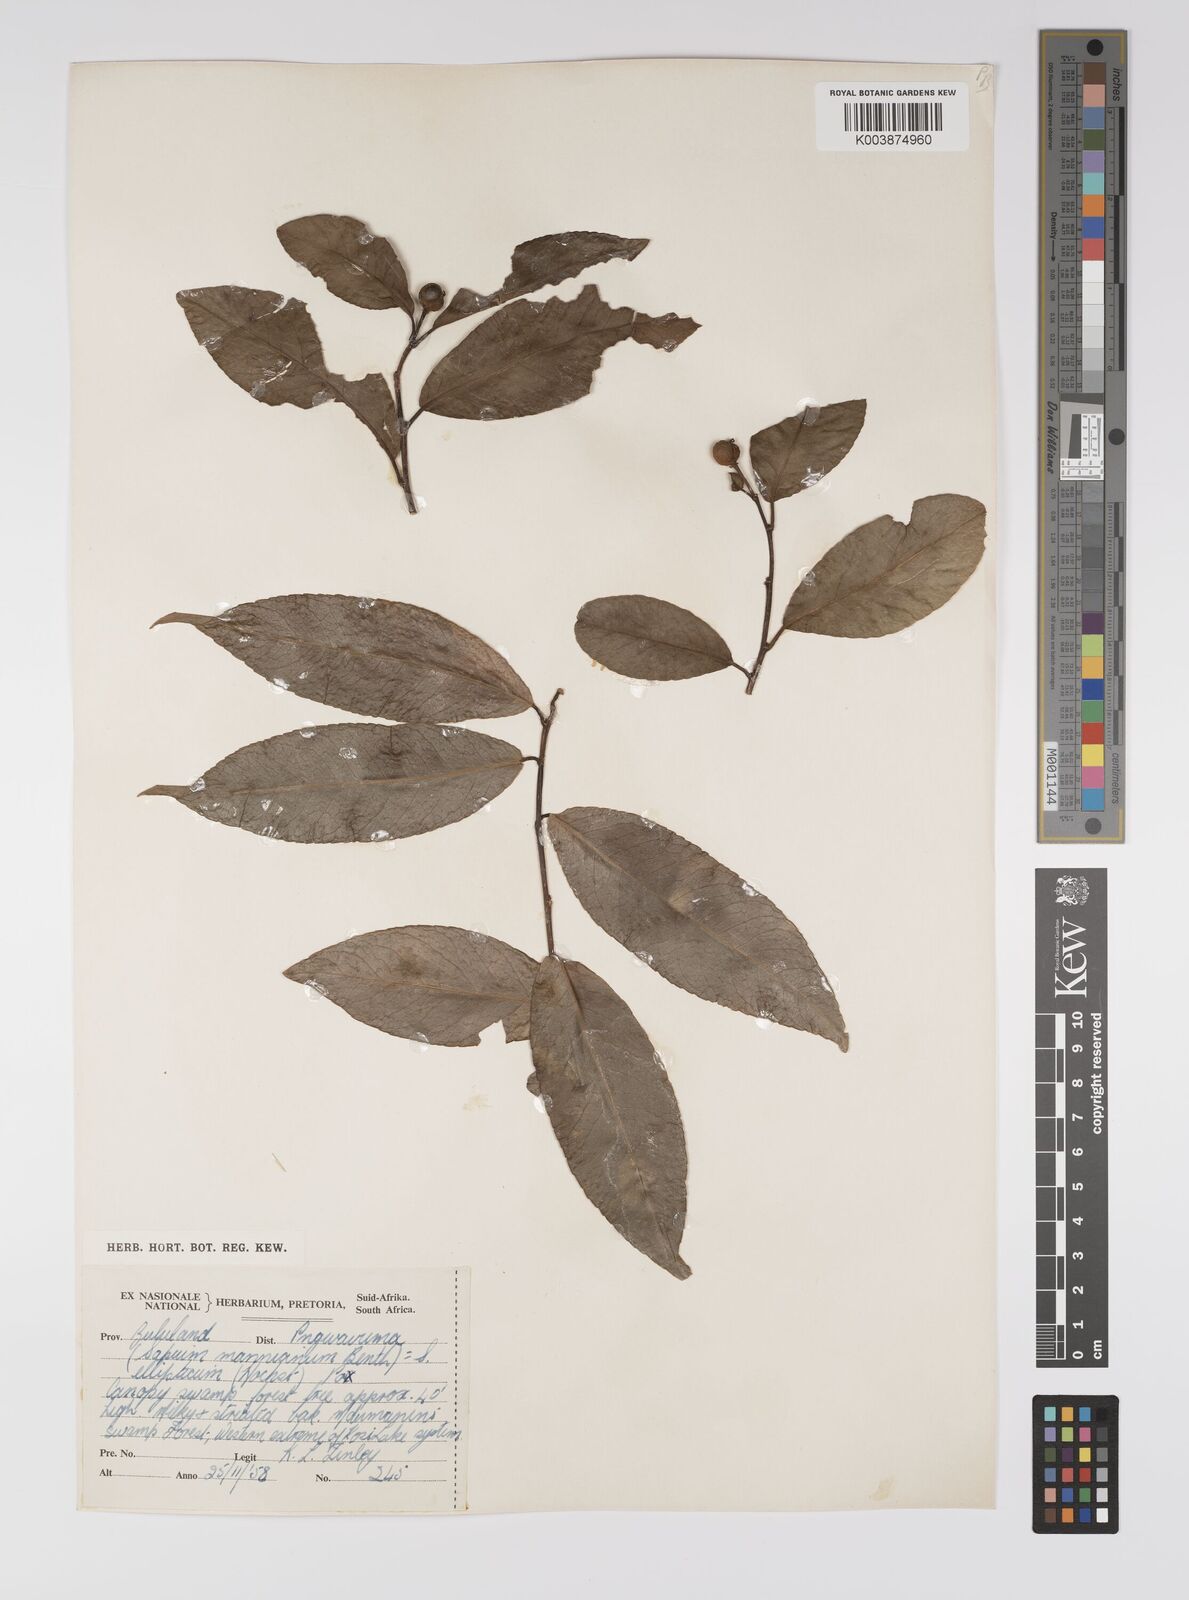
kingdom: Plantae
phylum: Tracheophyta
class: Magnoliopsida
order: Malpighiales
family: Euphorbiaceae
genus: Shirakiopsis
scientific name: Shirakiopsis elliptica
